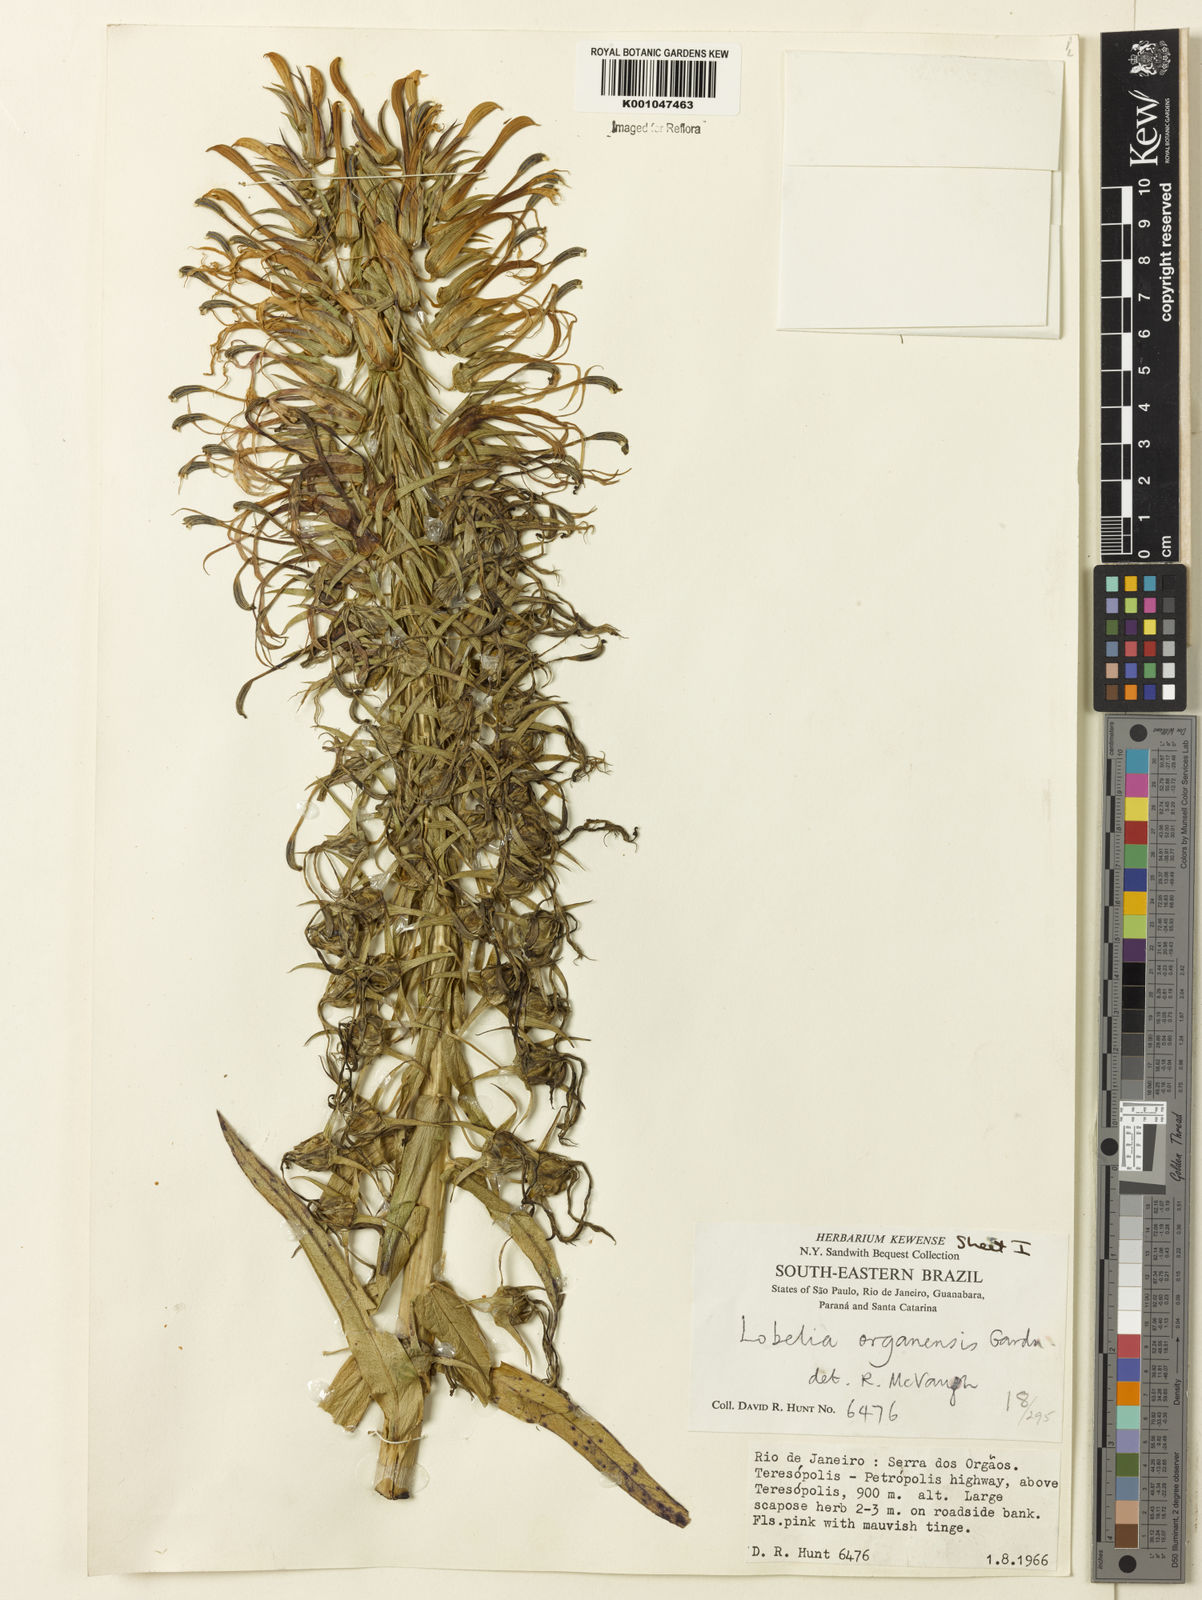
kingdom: Plantae
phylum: Tracheophyta
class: Magnoliopsida
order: Asterales
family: Campanulaceae
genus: Lobelia
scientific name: Lobelia organensis
